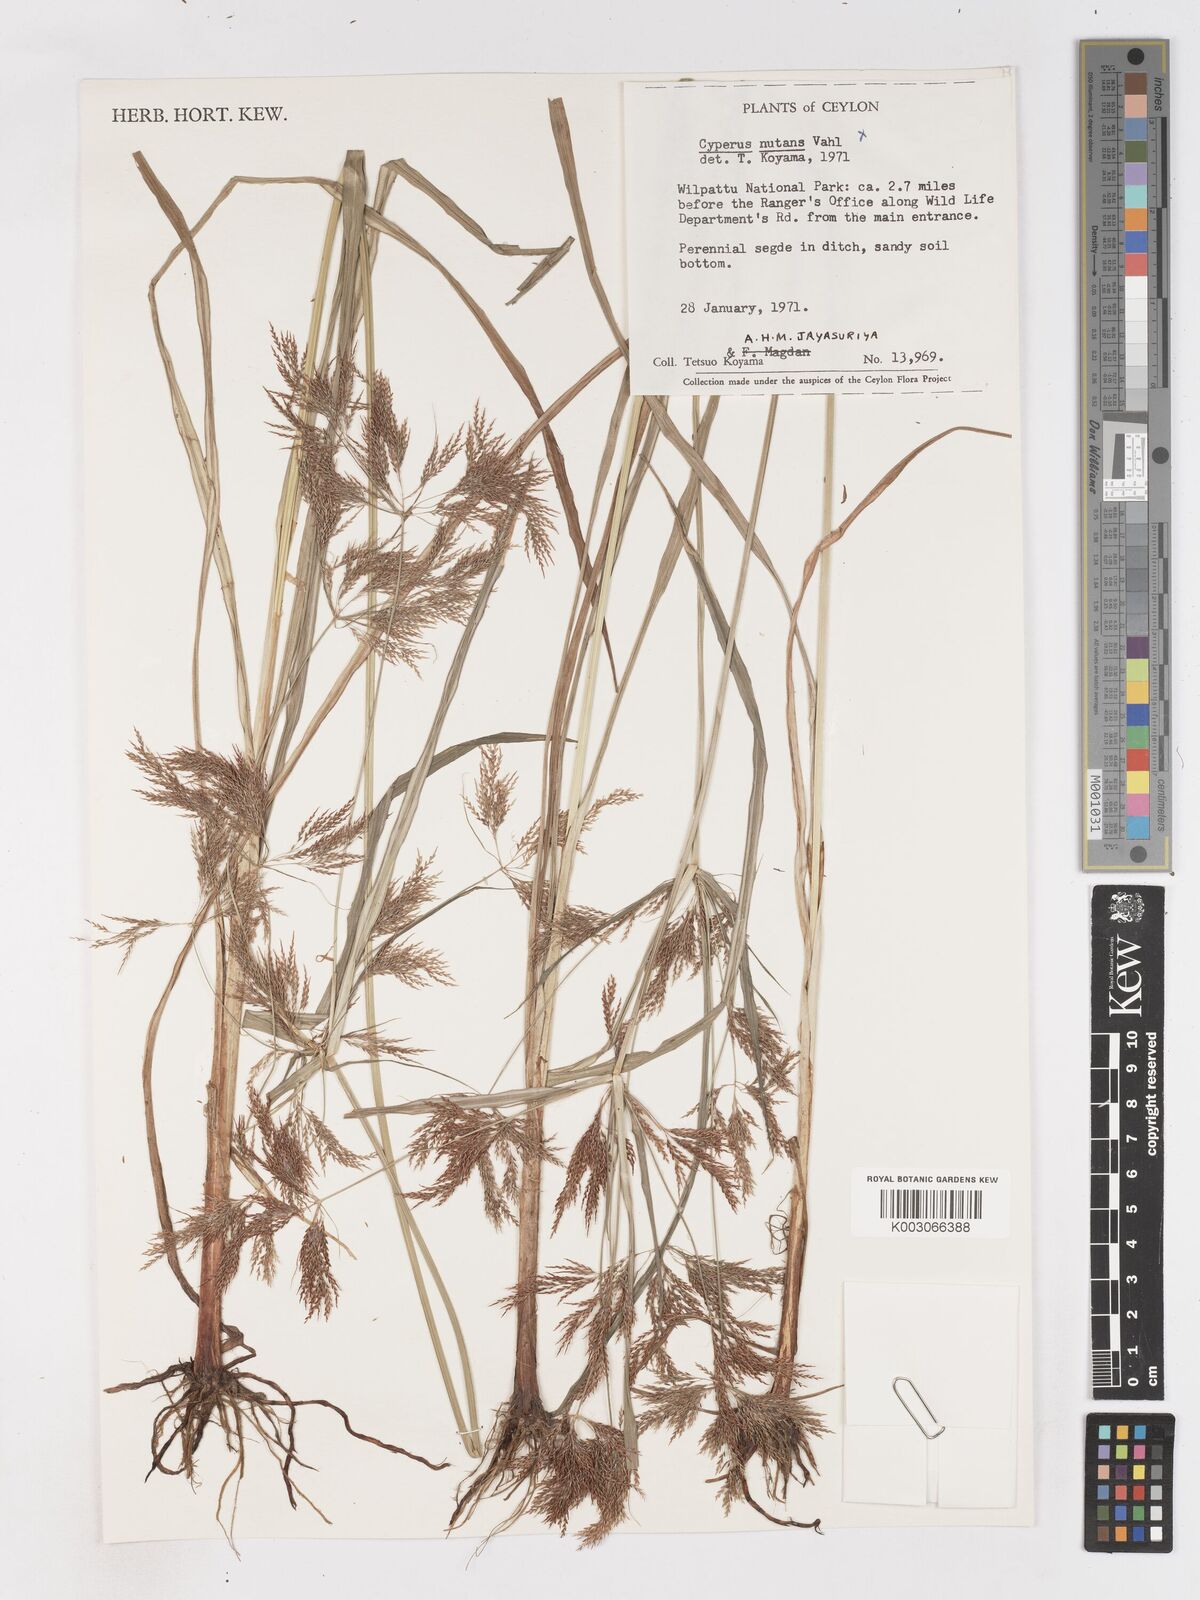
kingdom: Plantae
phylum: Tracheophyta
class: Liliopsida
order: Poales
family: Cyperaceae
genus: Cyperus
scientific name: Cyperus distans
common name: Slender cyperus
